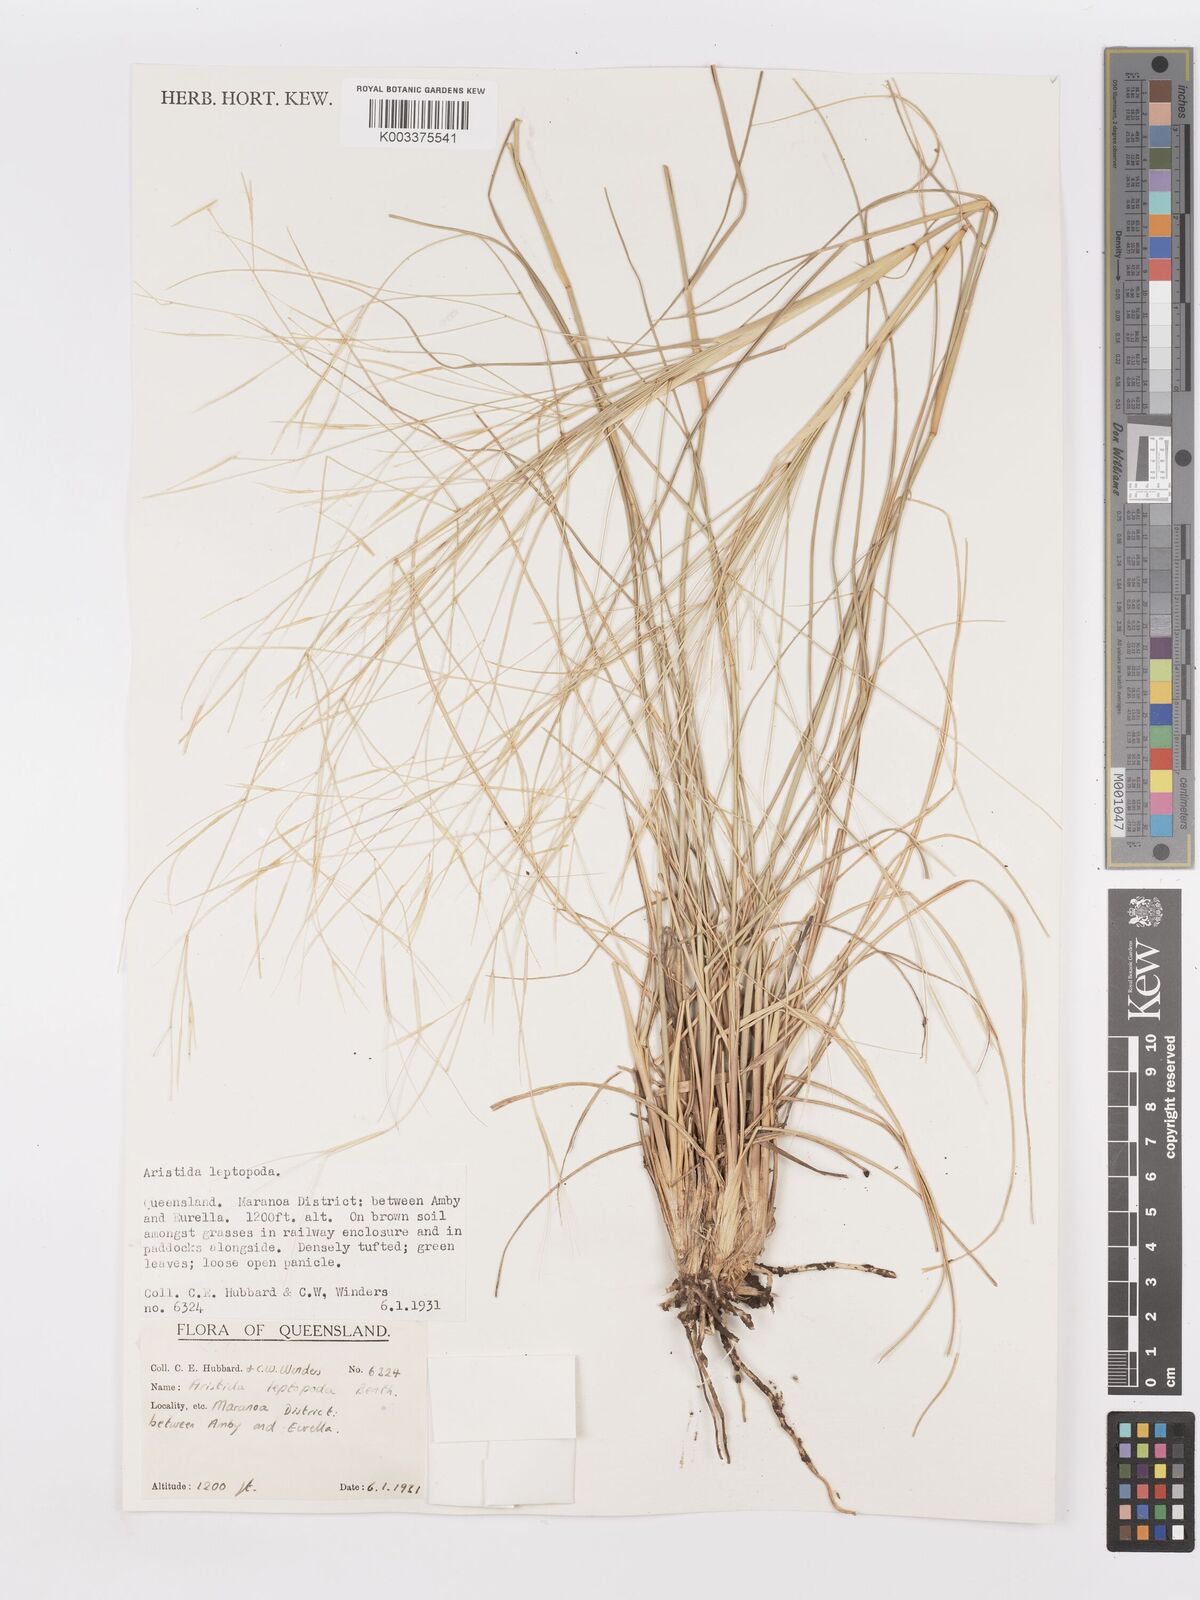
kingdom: Plantae
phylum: Tracheophyta
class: Liliopsida
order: Poales
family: Poaceae
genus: Aristida
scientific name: Aristida leptopoda
